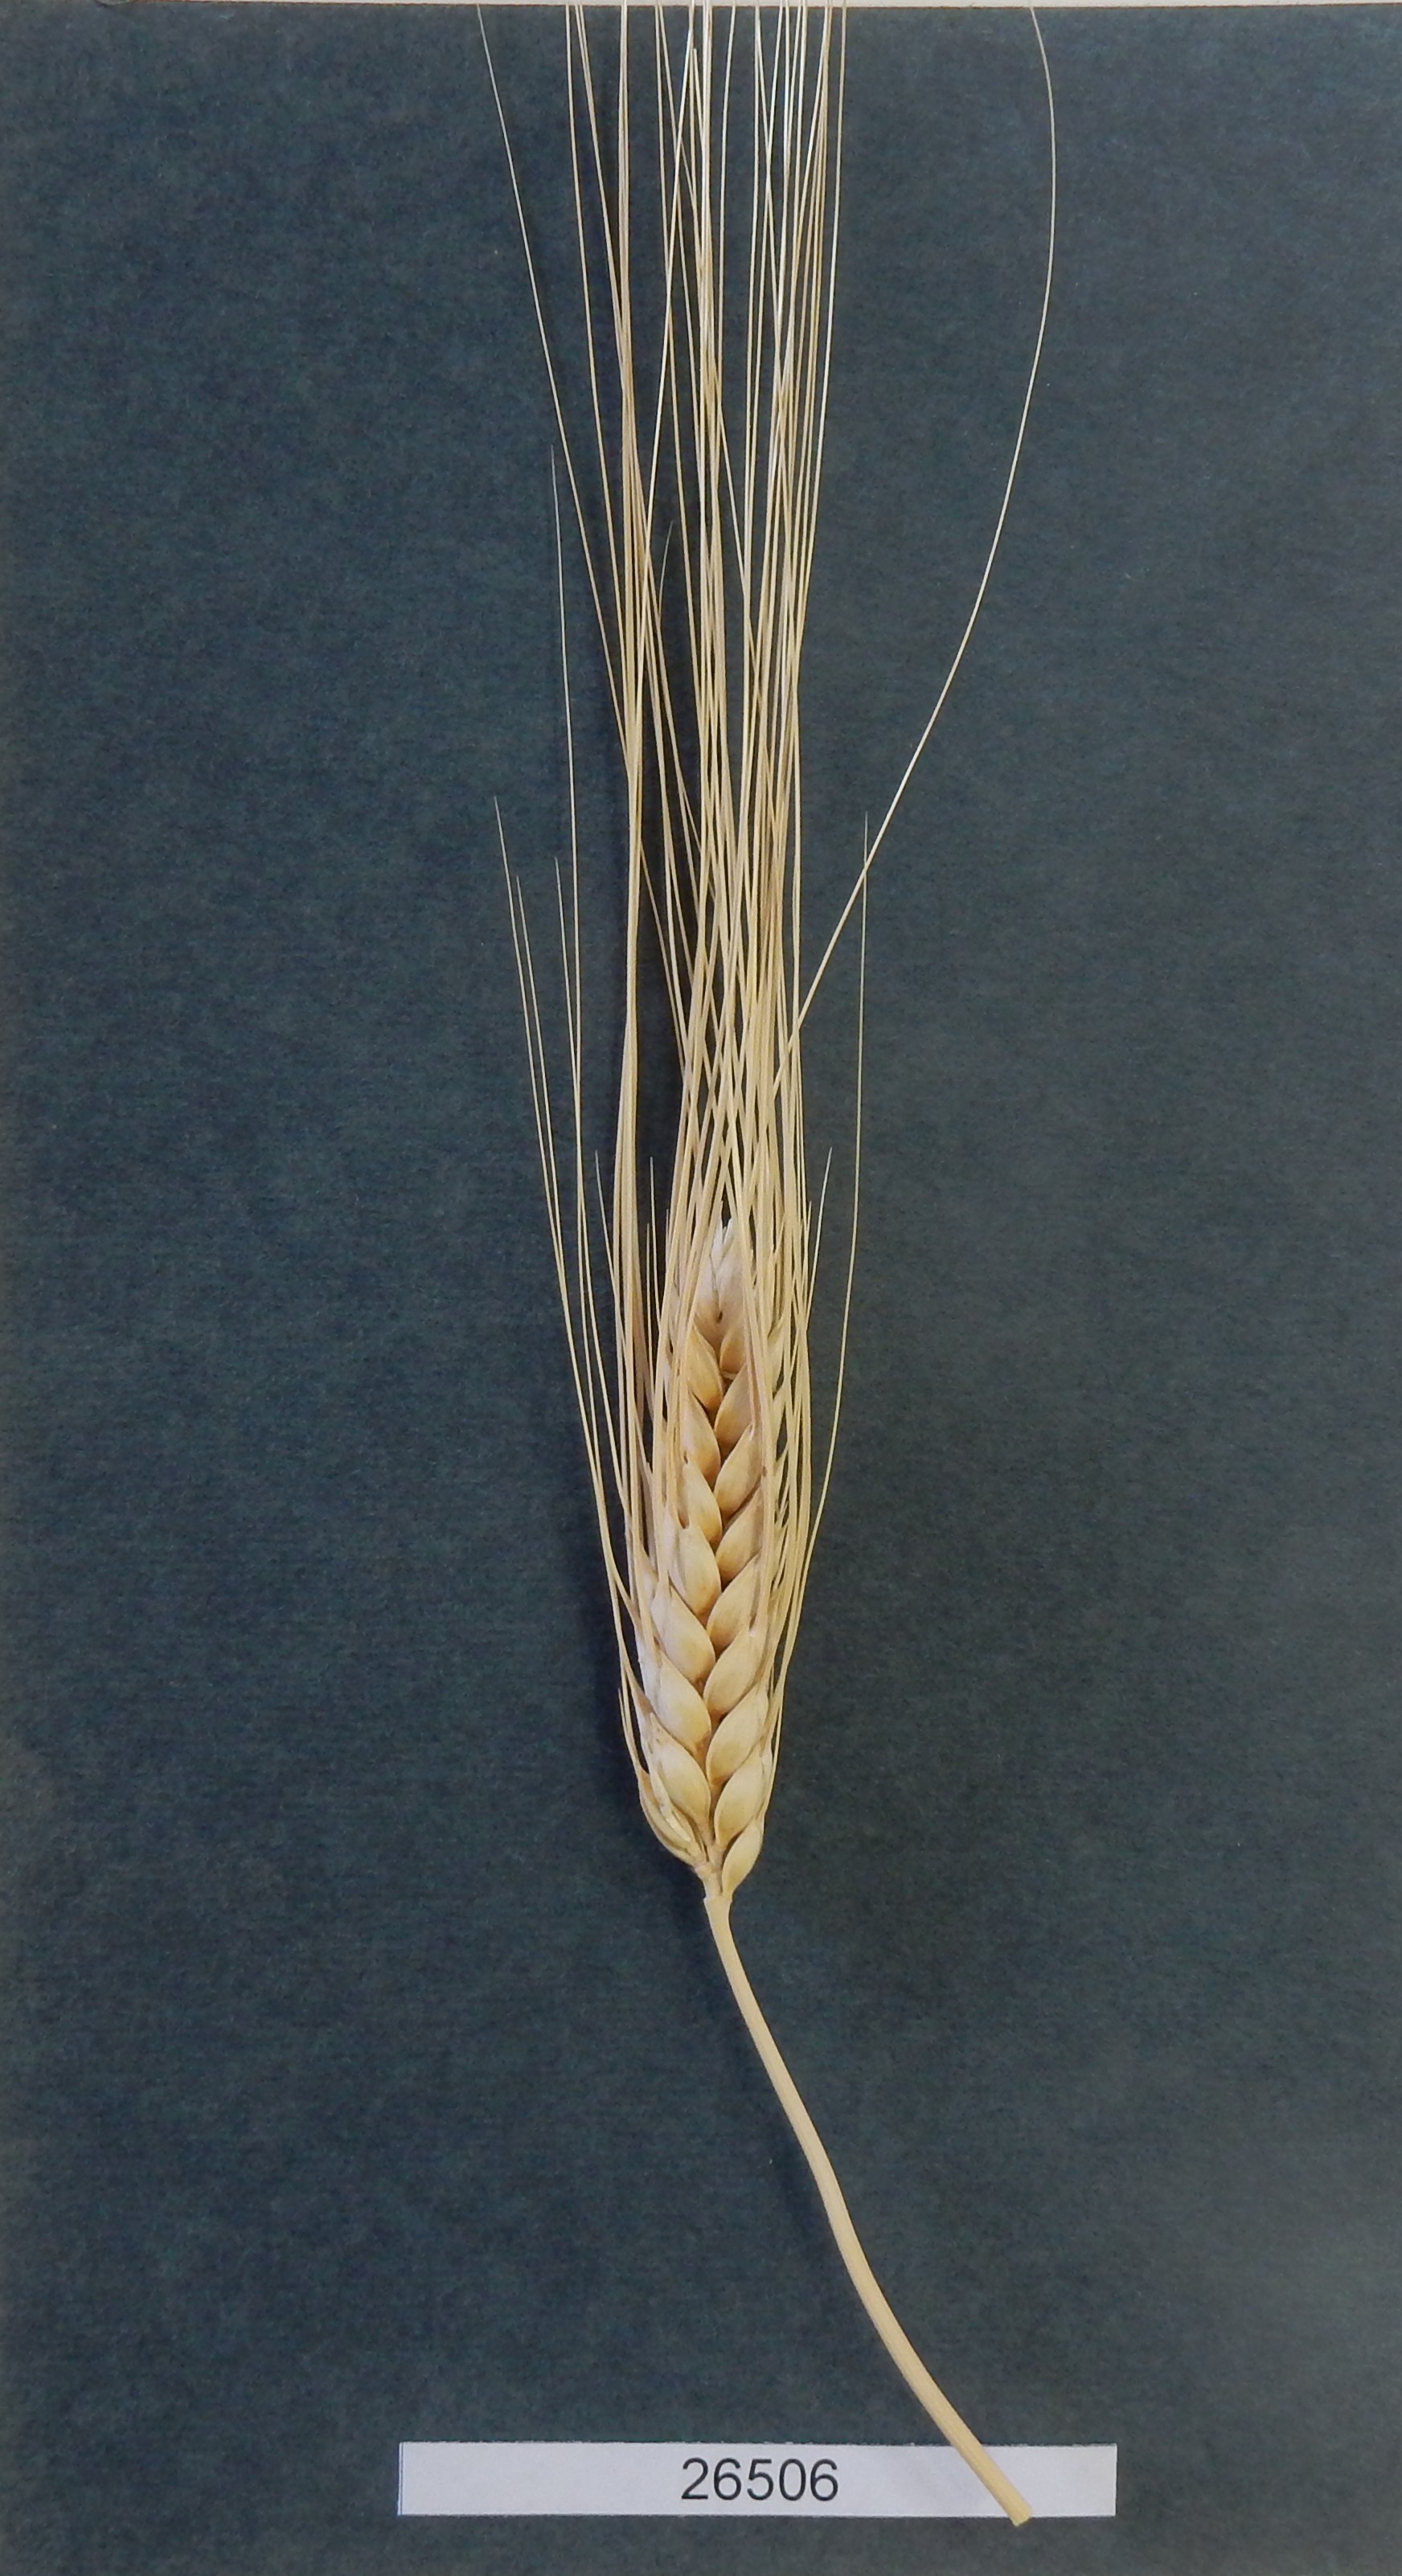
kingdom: Plantae
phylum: Tracheophyta
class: Liliopsida
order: Poales
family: Poaceae
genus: Triticum
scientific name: Triticum turgidum
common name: Wheat
